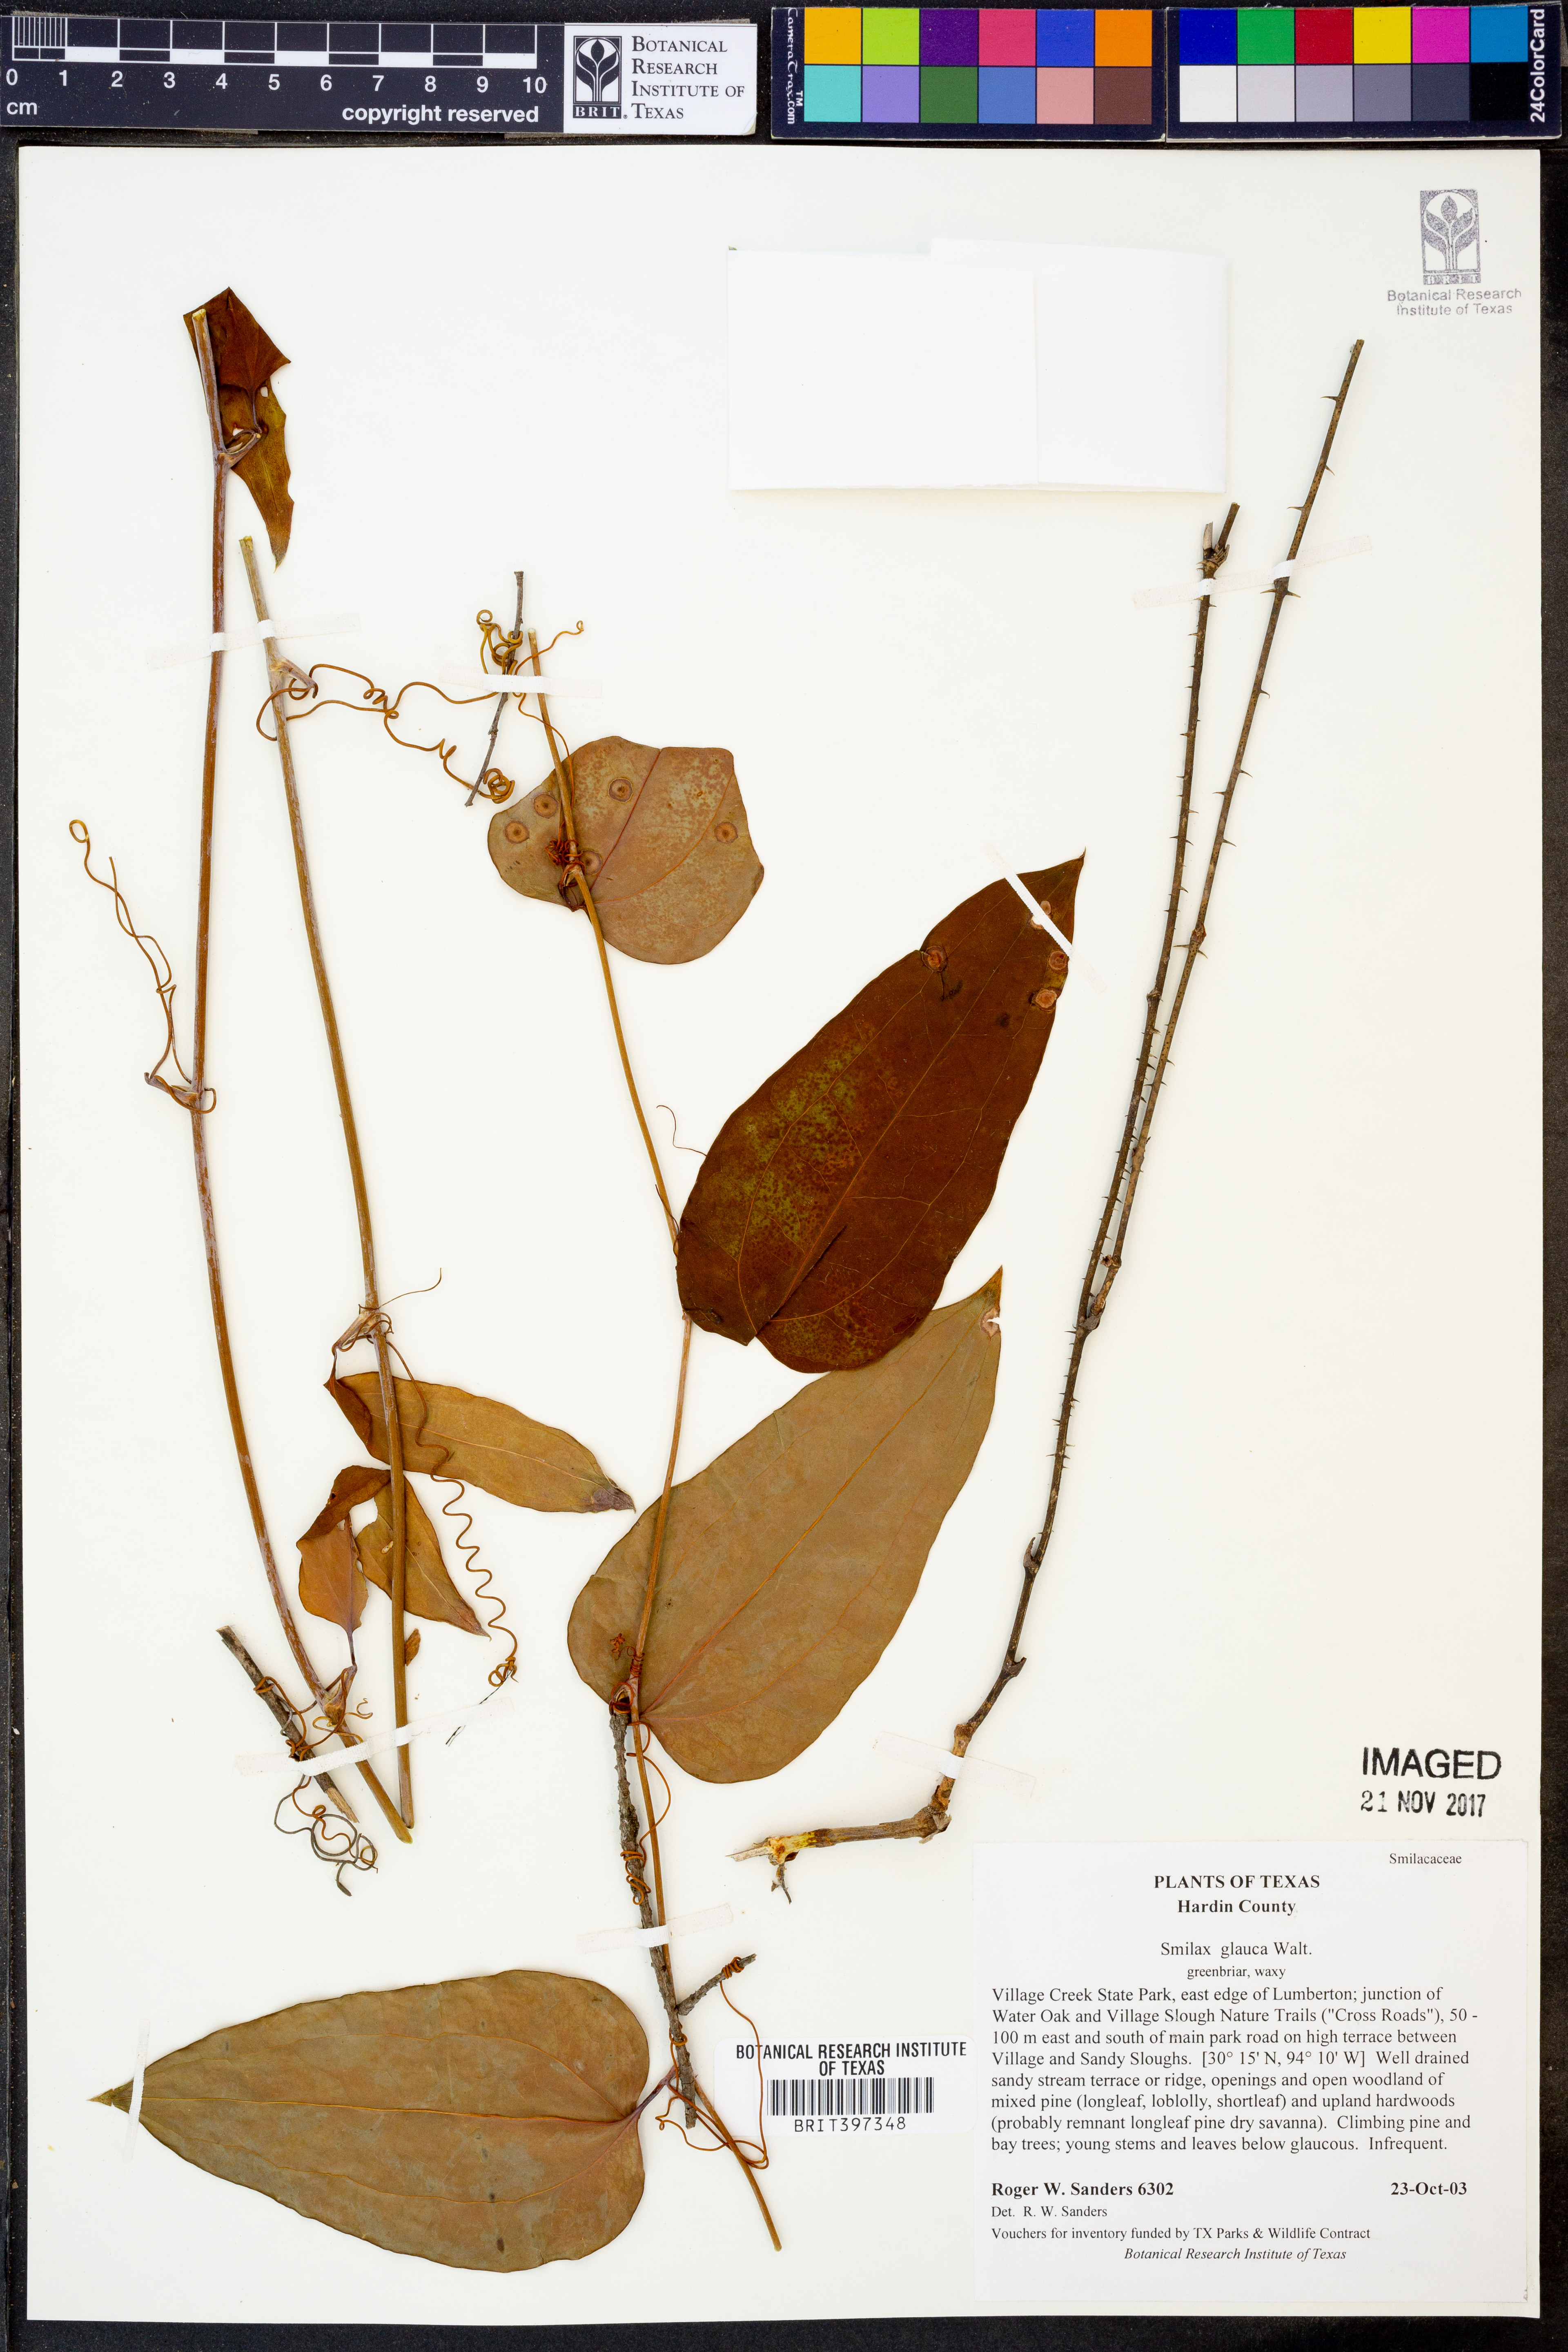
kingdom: Plantae
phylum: Tracheophyta
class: Liliopsida
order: Liliales
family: Smilacaceae
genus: Smilax
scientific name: Smilax glauca
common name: Cat greenbrier
